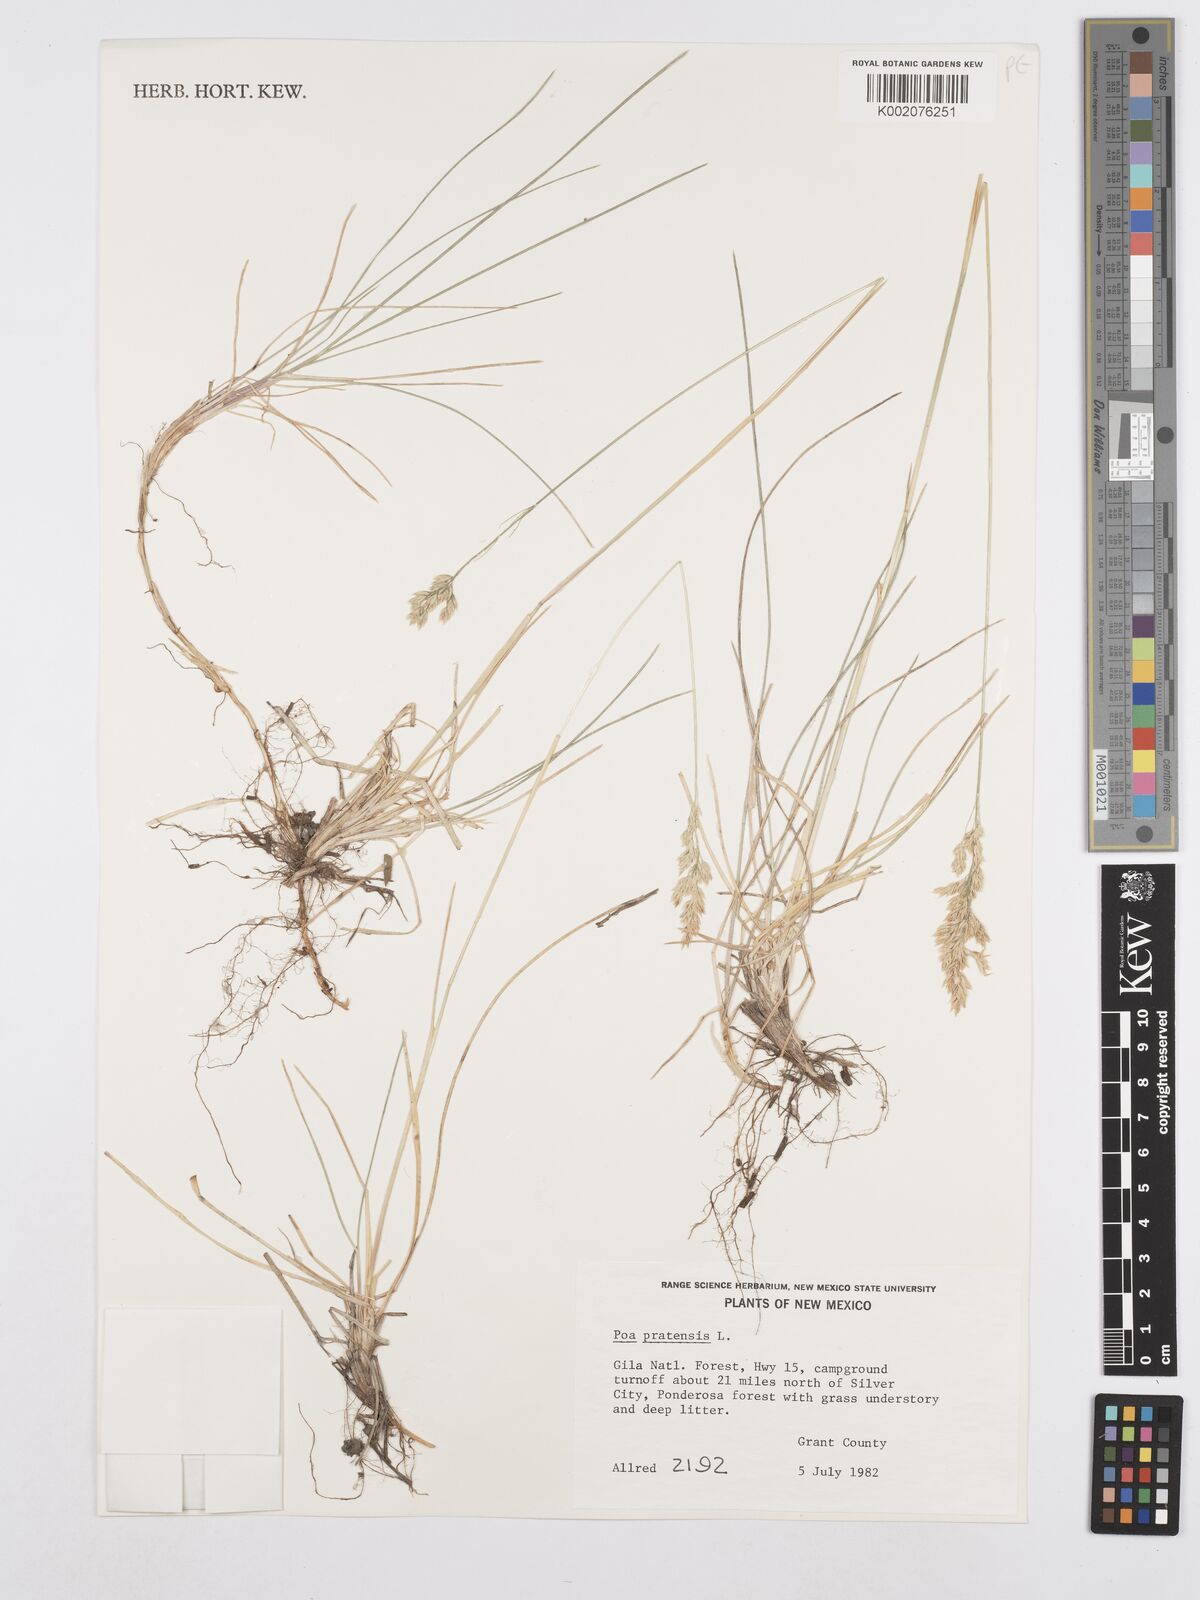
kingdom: Plantae
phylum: Tracheophyta
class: Liliopsida
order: Poales
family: Poaceae
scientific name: Poaceae
